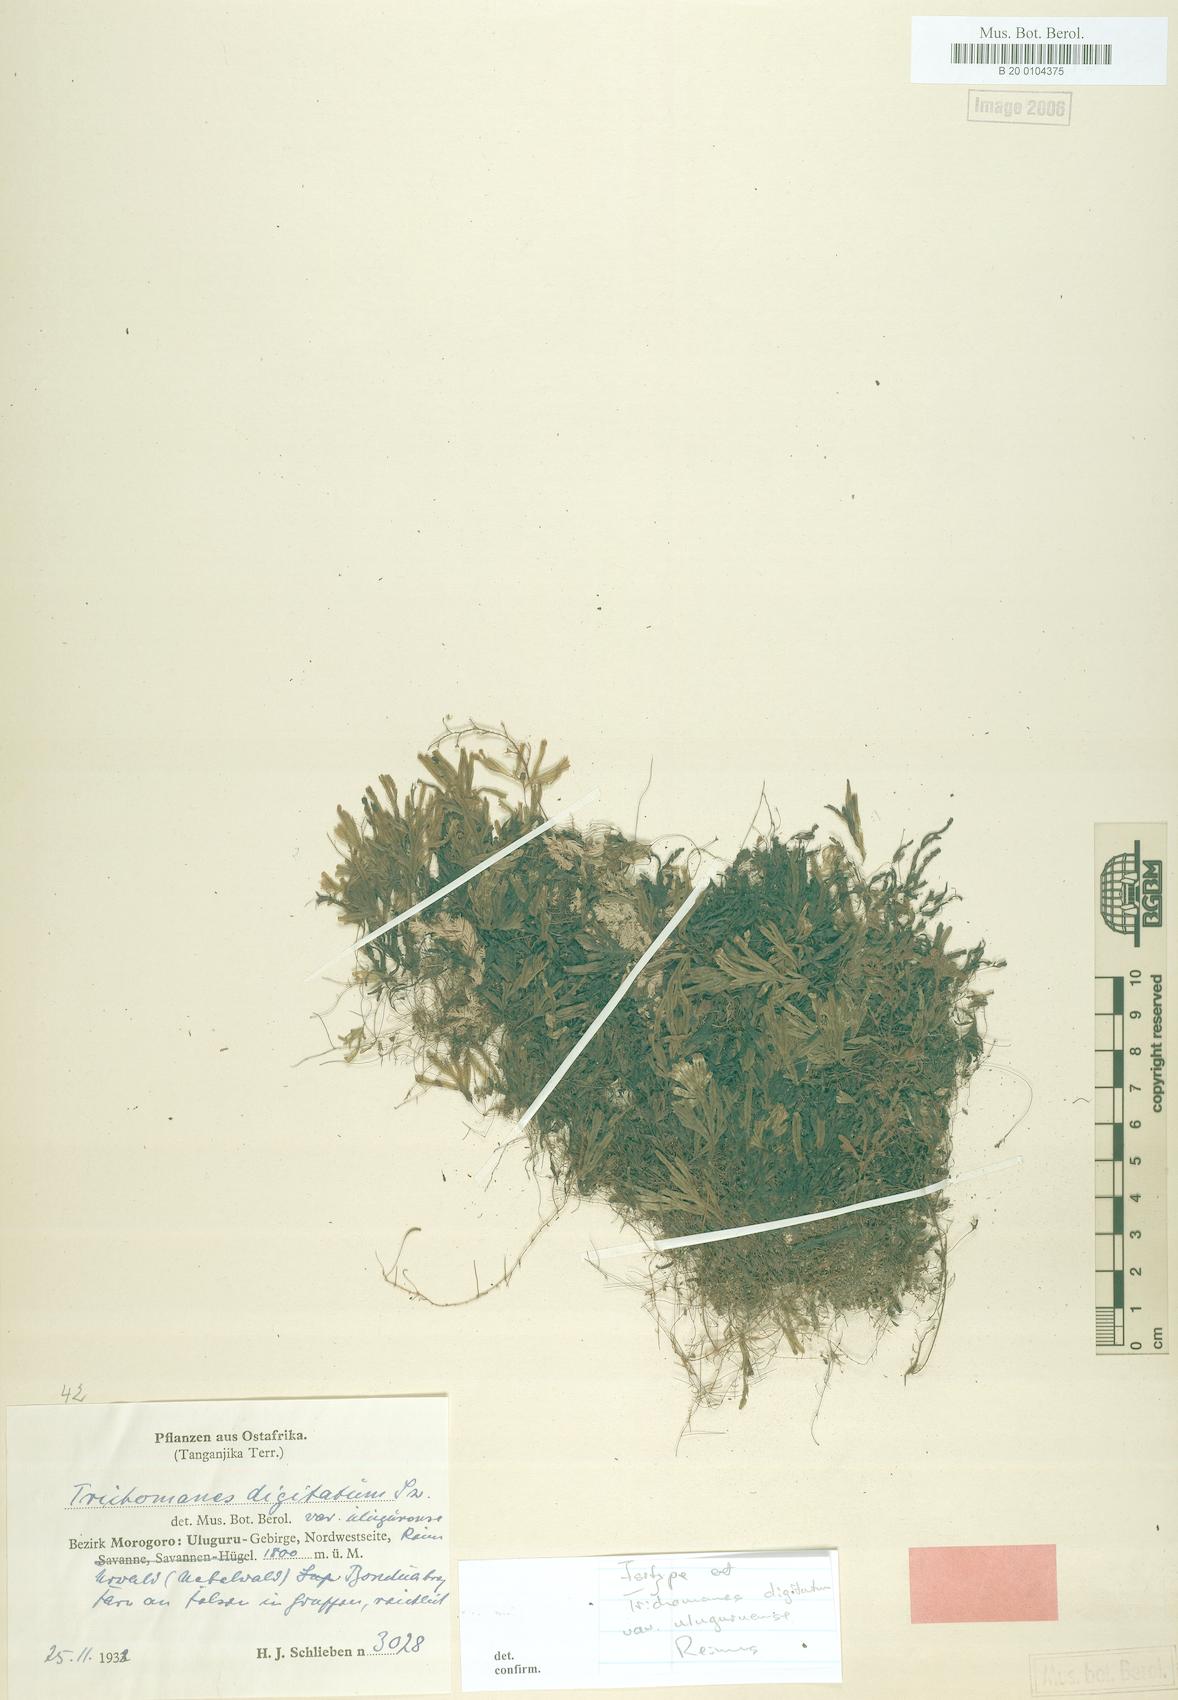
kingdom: Plantae
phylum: Tracheophyta
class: Polypodiopsida
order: Hymenophyllales
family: Hymenophyllaceae
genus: Hymenophyllum
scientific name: Hymenophyllum digitatum
